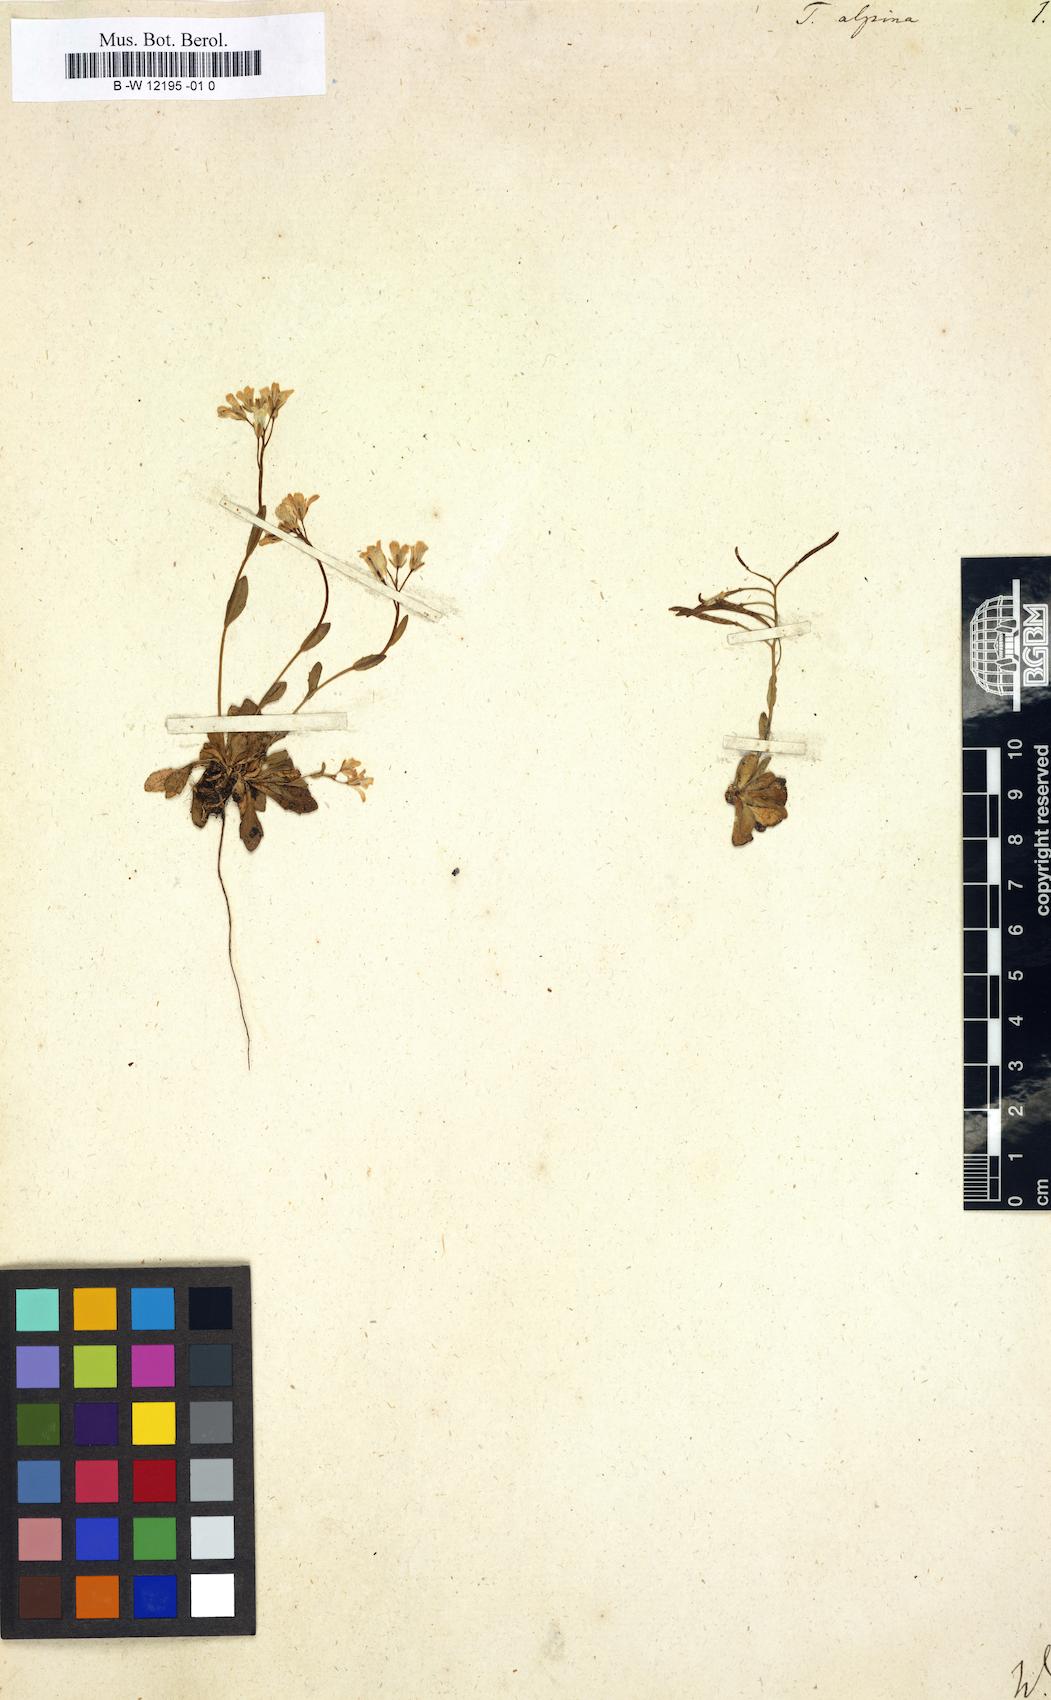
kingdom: Plantae
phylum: Tracheophyta
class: Magnoliopsida
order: Brassicales
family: Brassicaceae
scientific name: Brassicaceae
